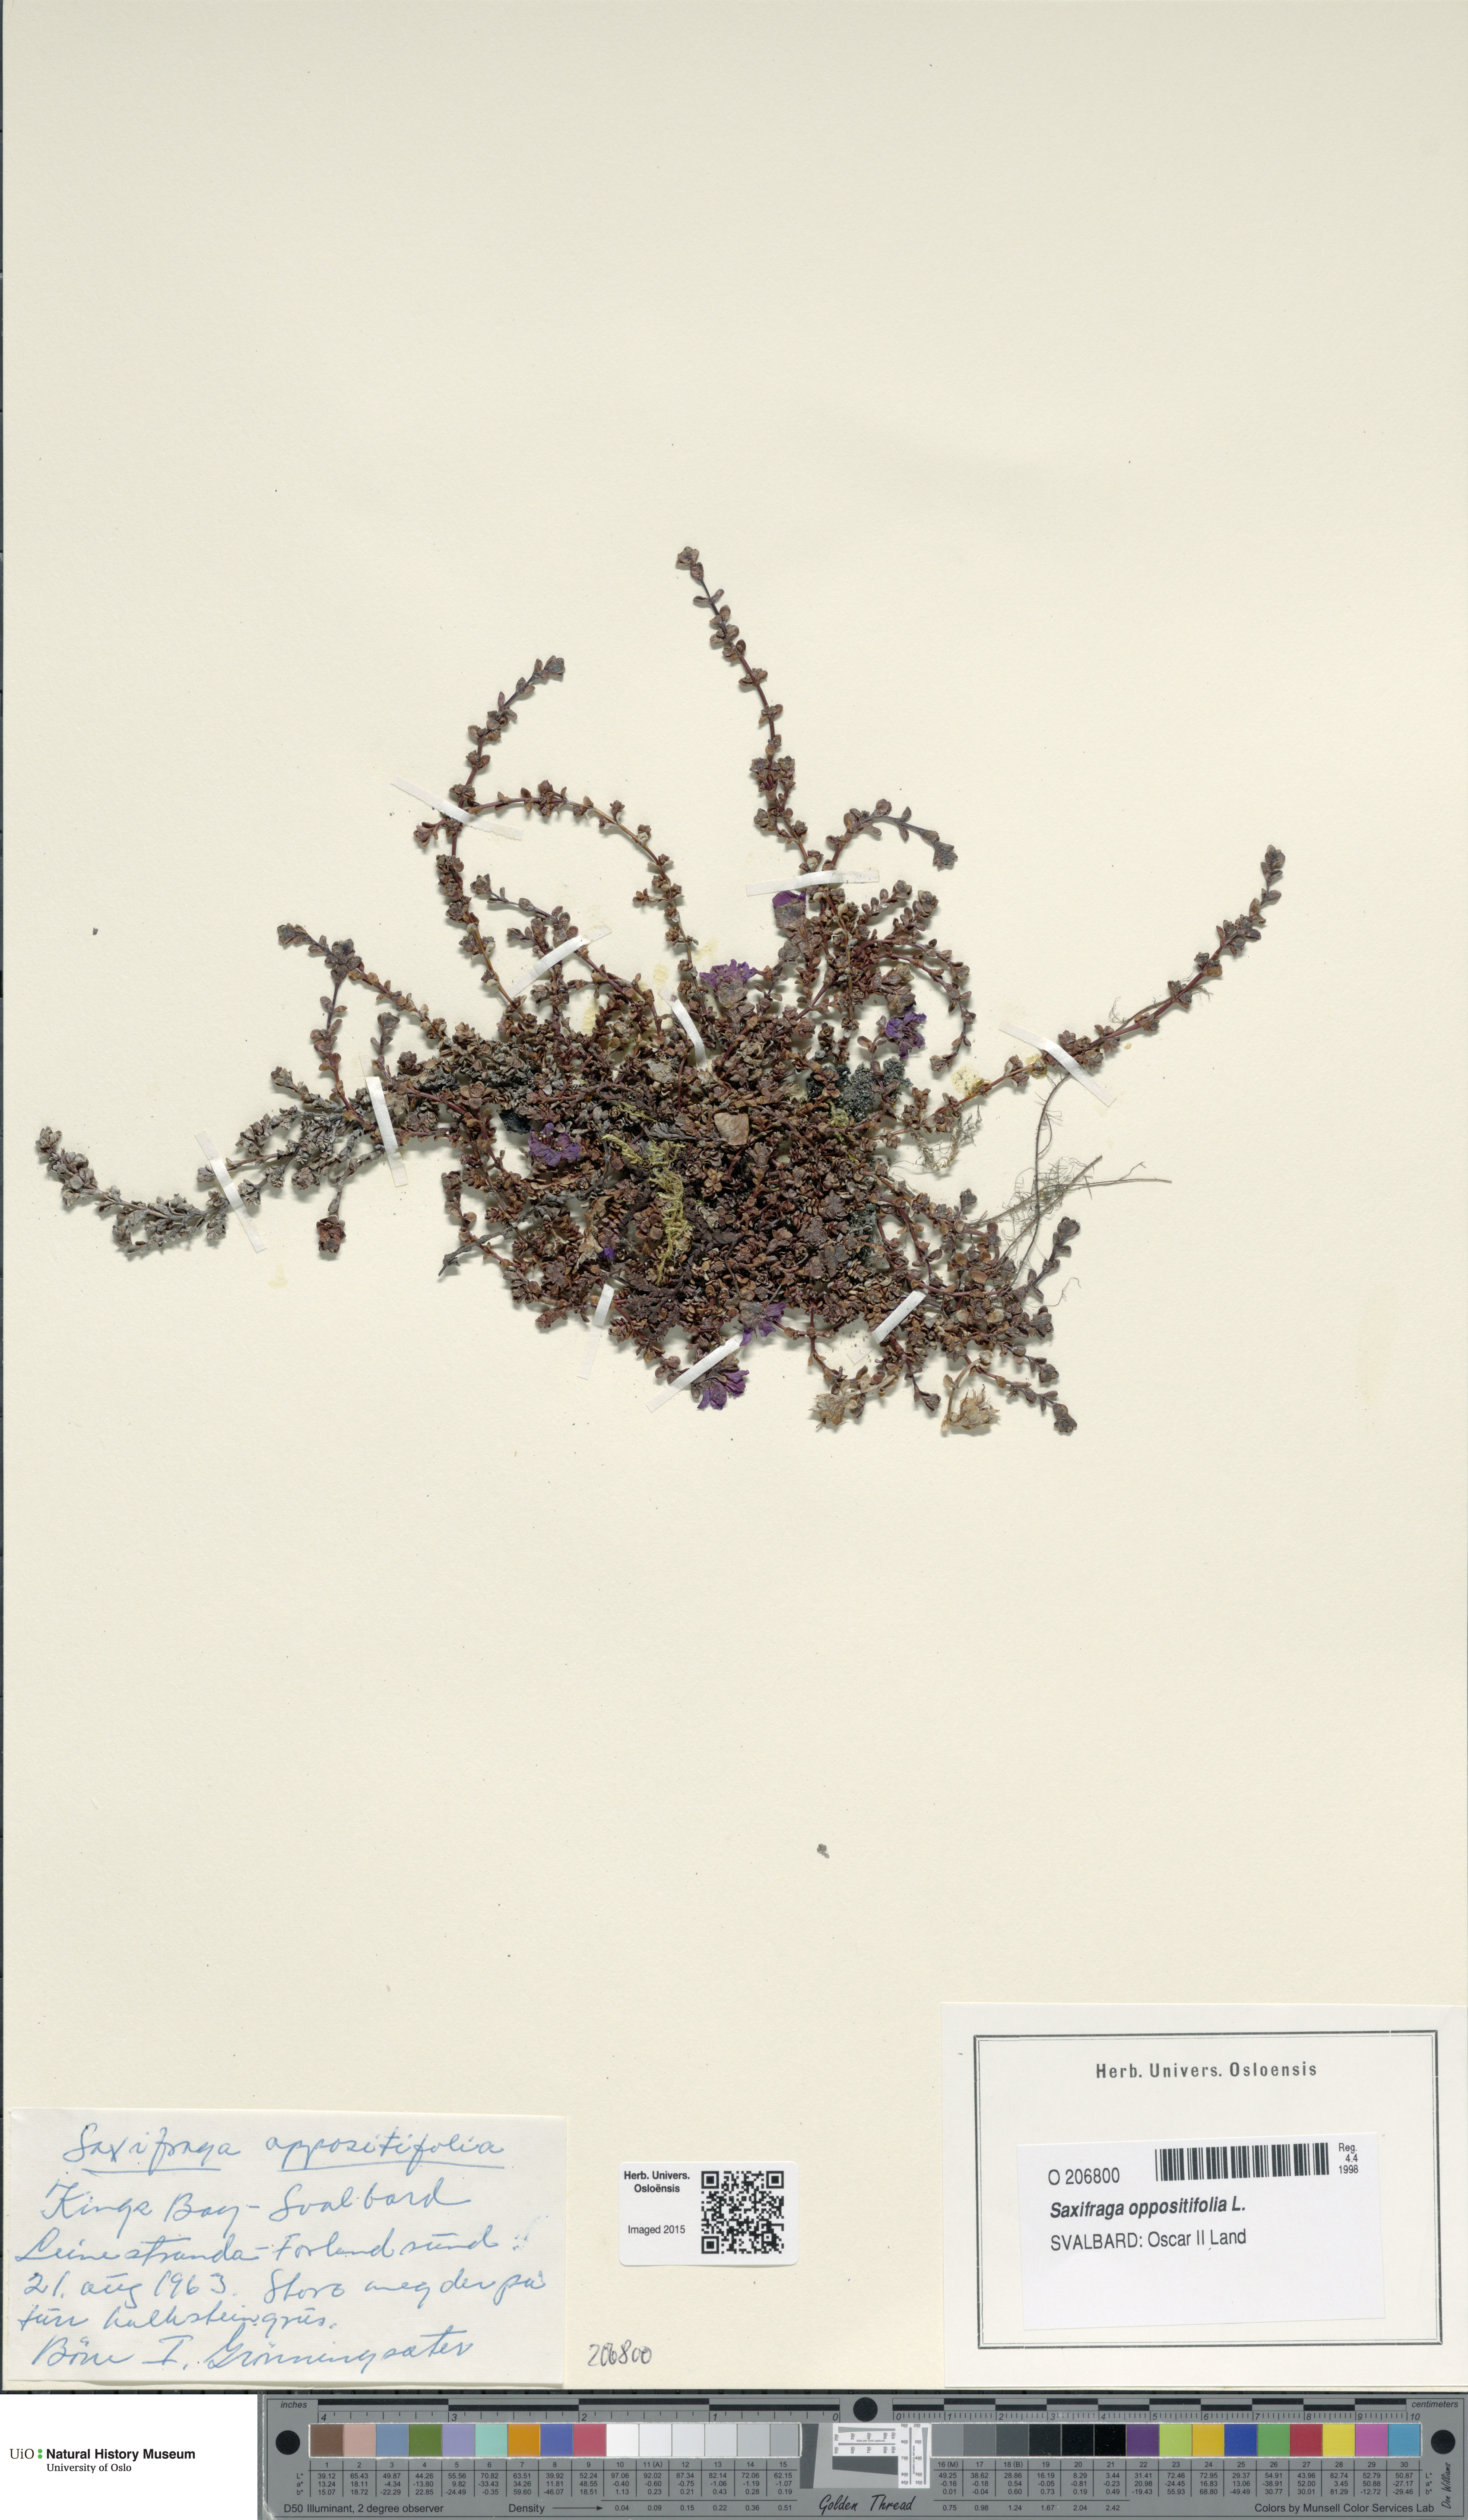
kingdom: Plantae
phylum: Tracheophyta
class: Magnoliopsida
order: Saxifragales
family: Saxifragaceae
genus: Saxifraga
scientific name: Saxifraga oppositifolia
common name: Purple saxifrage
